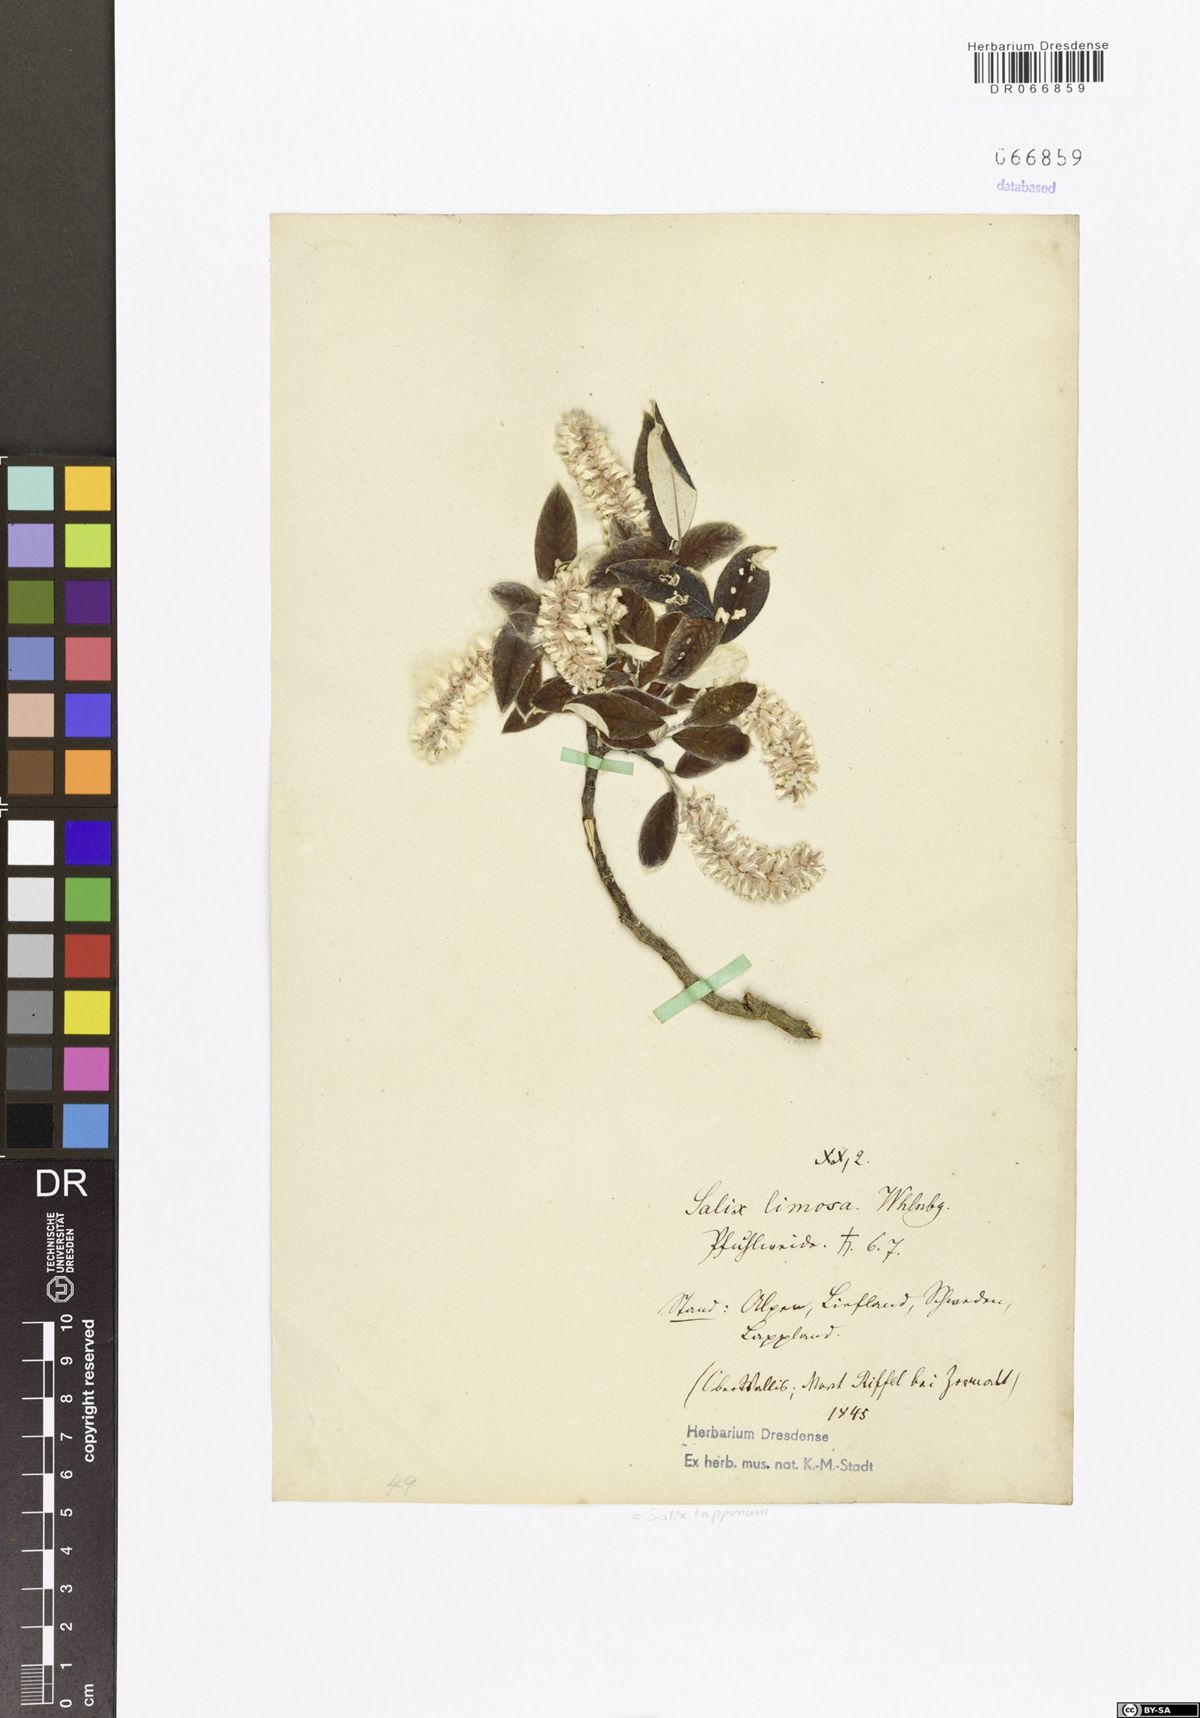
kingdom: Plantae
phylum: Tracheophyta
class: Magnoliopsida
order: Malpighiales
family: Salicaceae
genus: Salix
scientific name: Salix lapponum
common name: Downy willow
